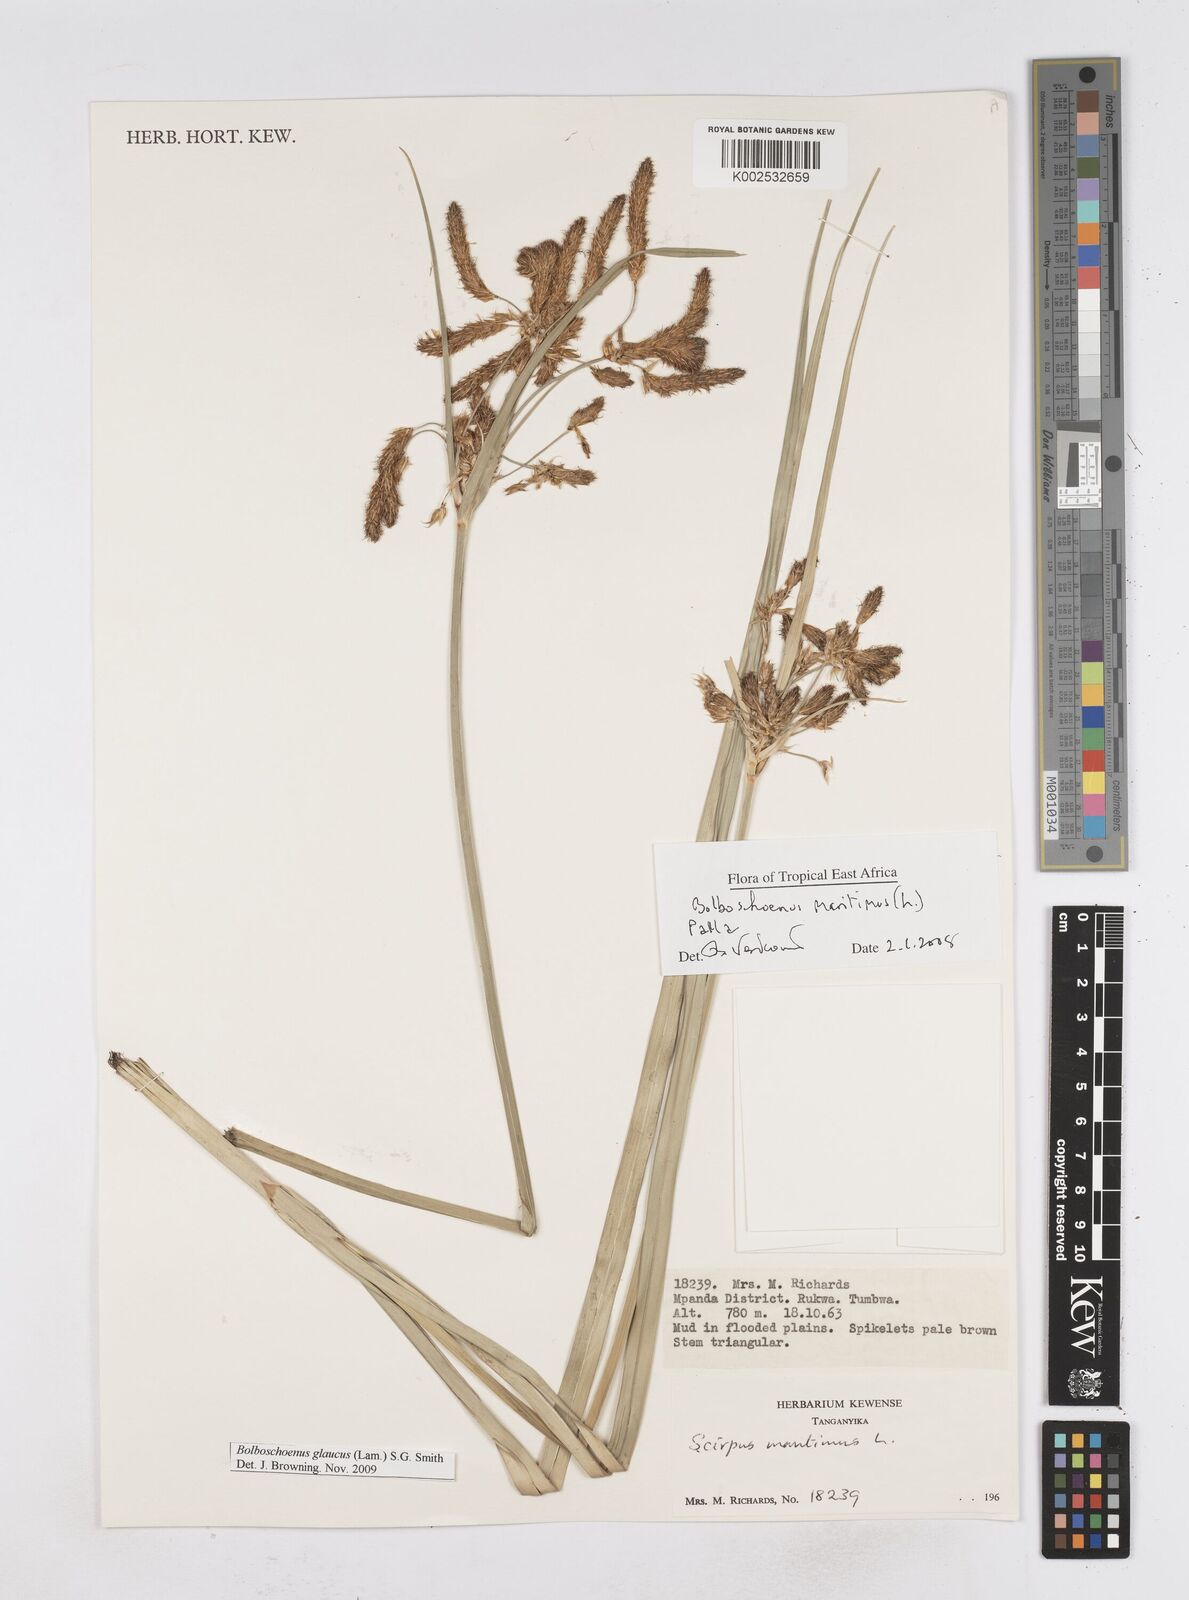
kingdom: Plantae
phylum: Tracheophyta
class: Liliopsida
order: Poales
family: Cyperaceae
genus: Bolboschoenus
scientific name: Bolboschoenus glaucus
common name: Tuberous bulrush
